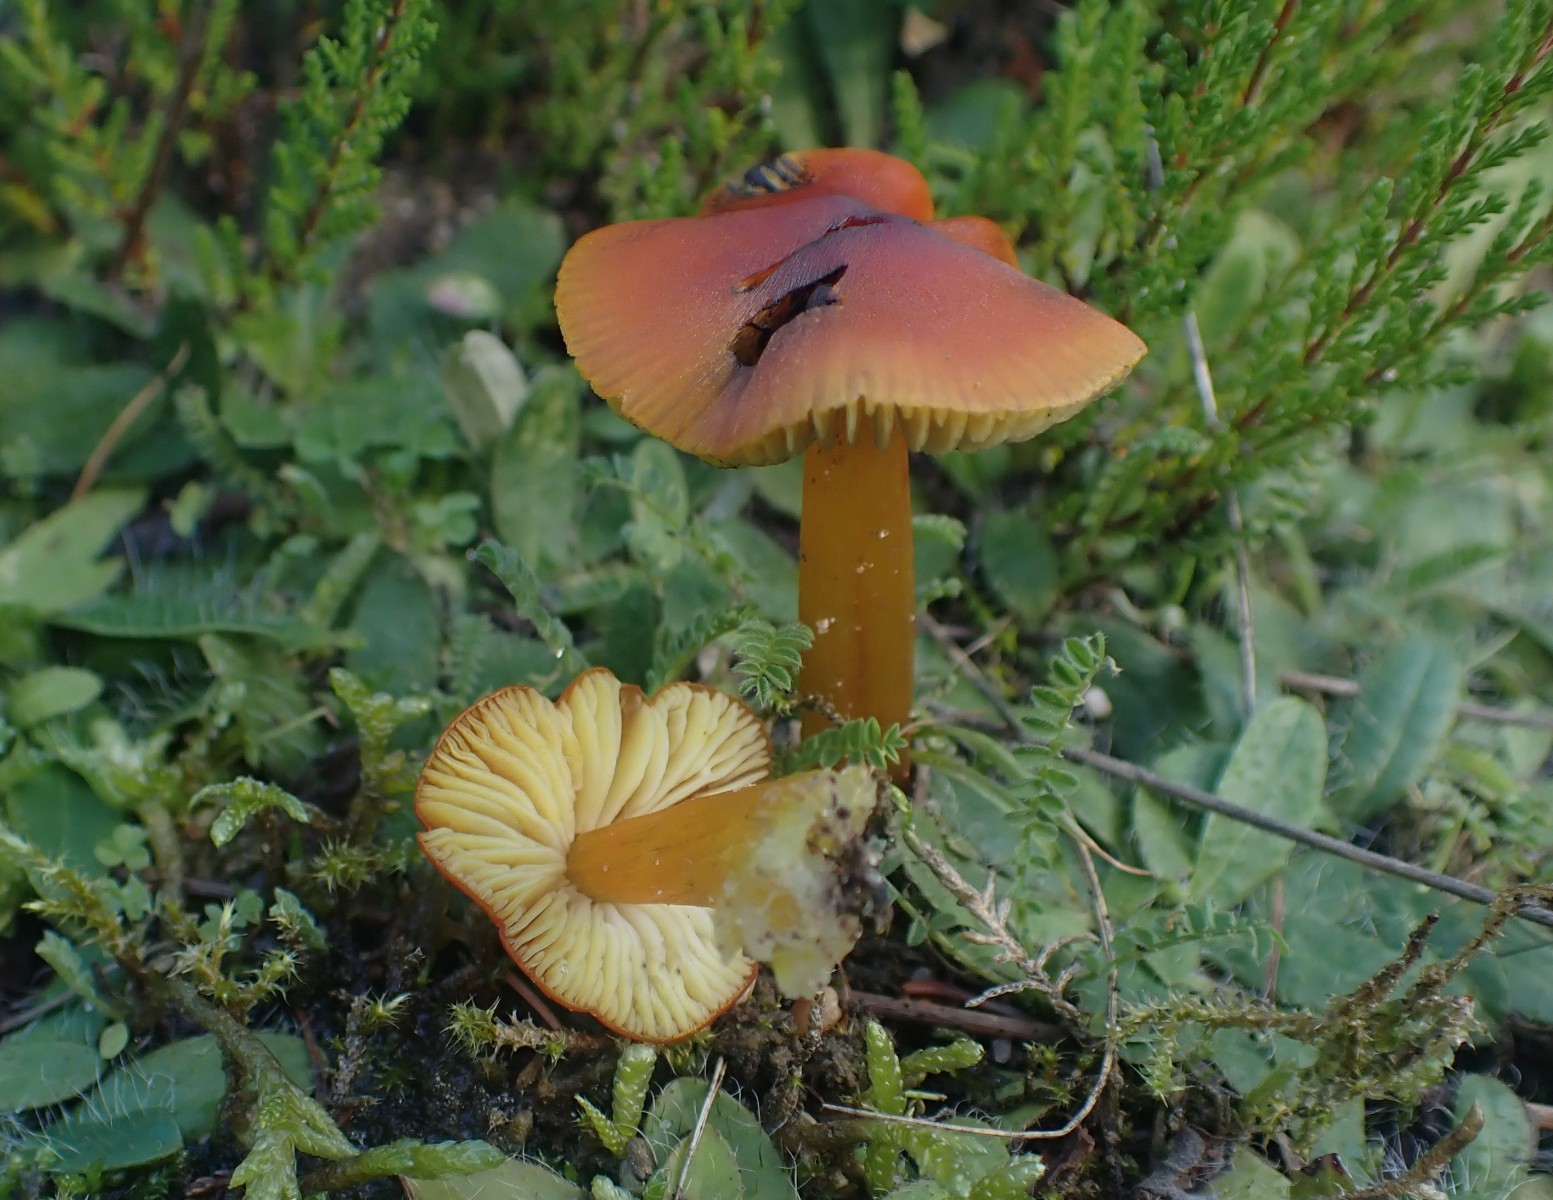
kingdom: Fungi
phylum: Basidiomycota
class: Agaricomycetes
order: Agaricales
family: Hygrophoraceae
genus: Hygrocybe
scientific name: Hygrocybe conica
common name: kegle-vokshat
